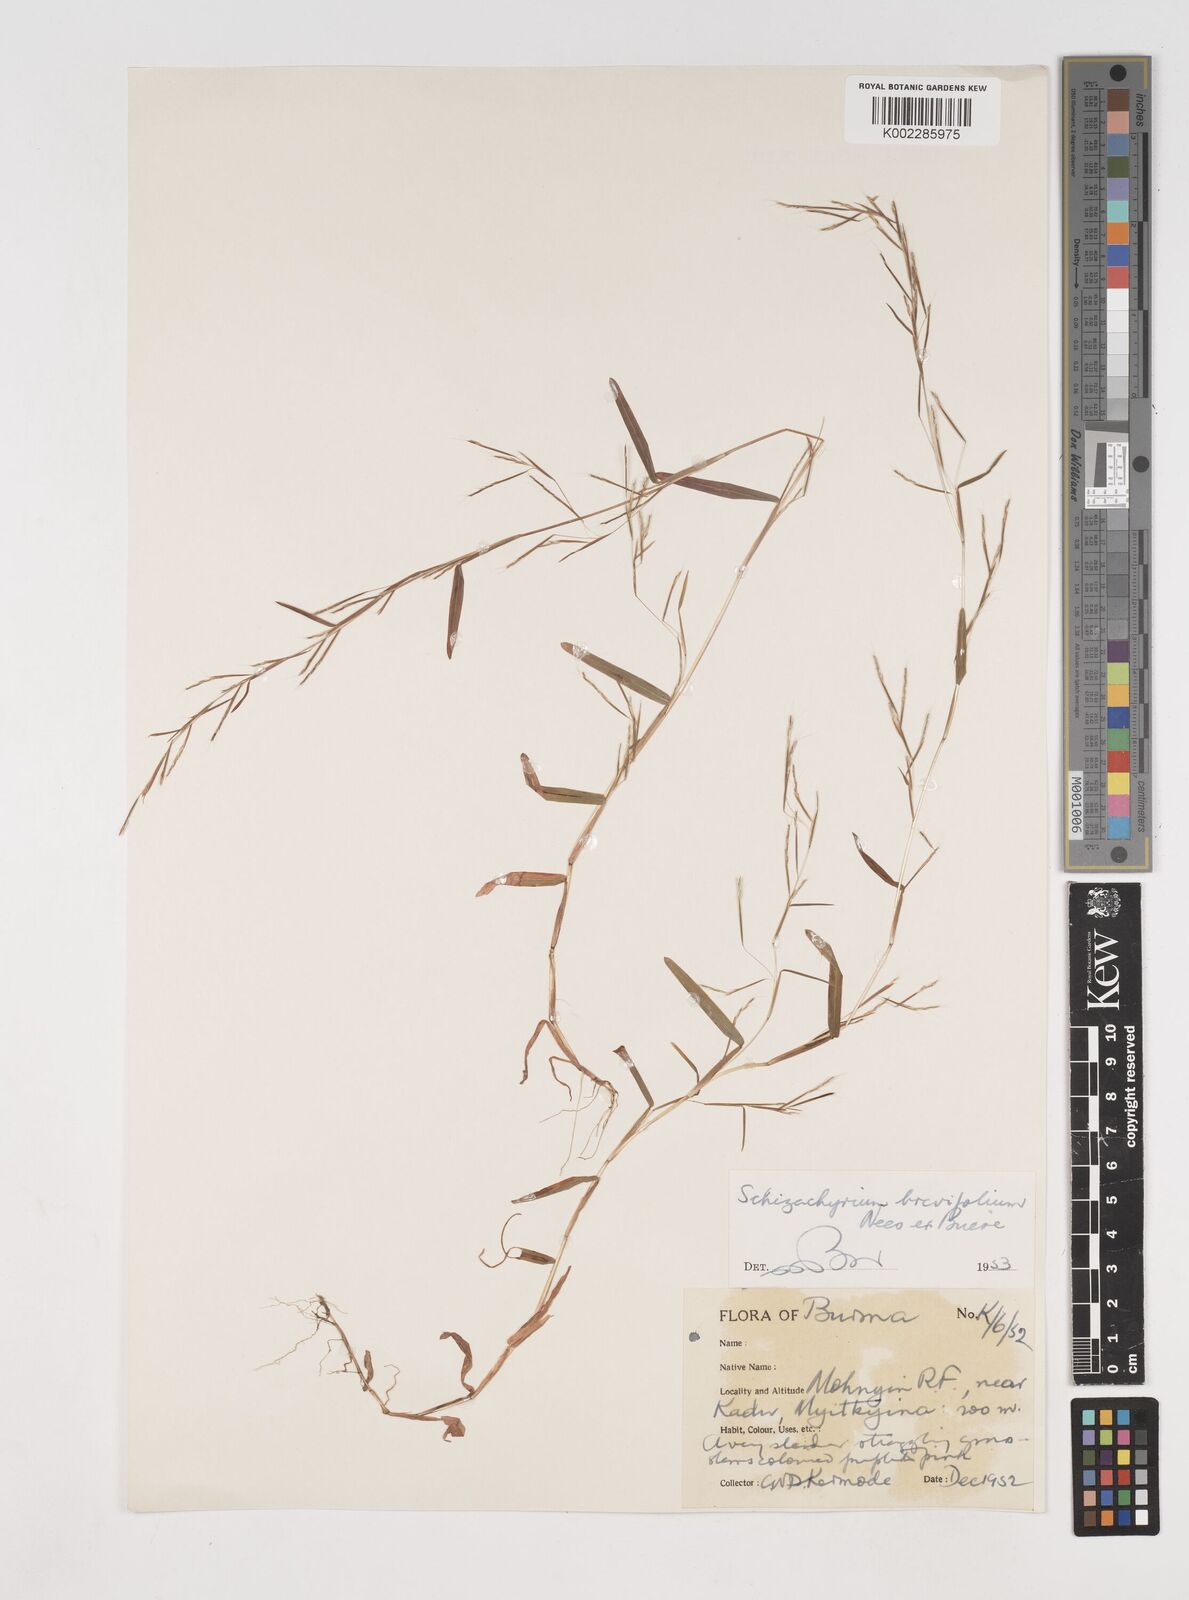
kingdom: Plantae
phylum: Tracheophyta
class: Liliopsida
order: Poales
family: Poaceae
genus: Schizachyrium
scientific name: Schizachyrium brevifolium
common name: Serillo dulce
